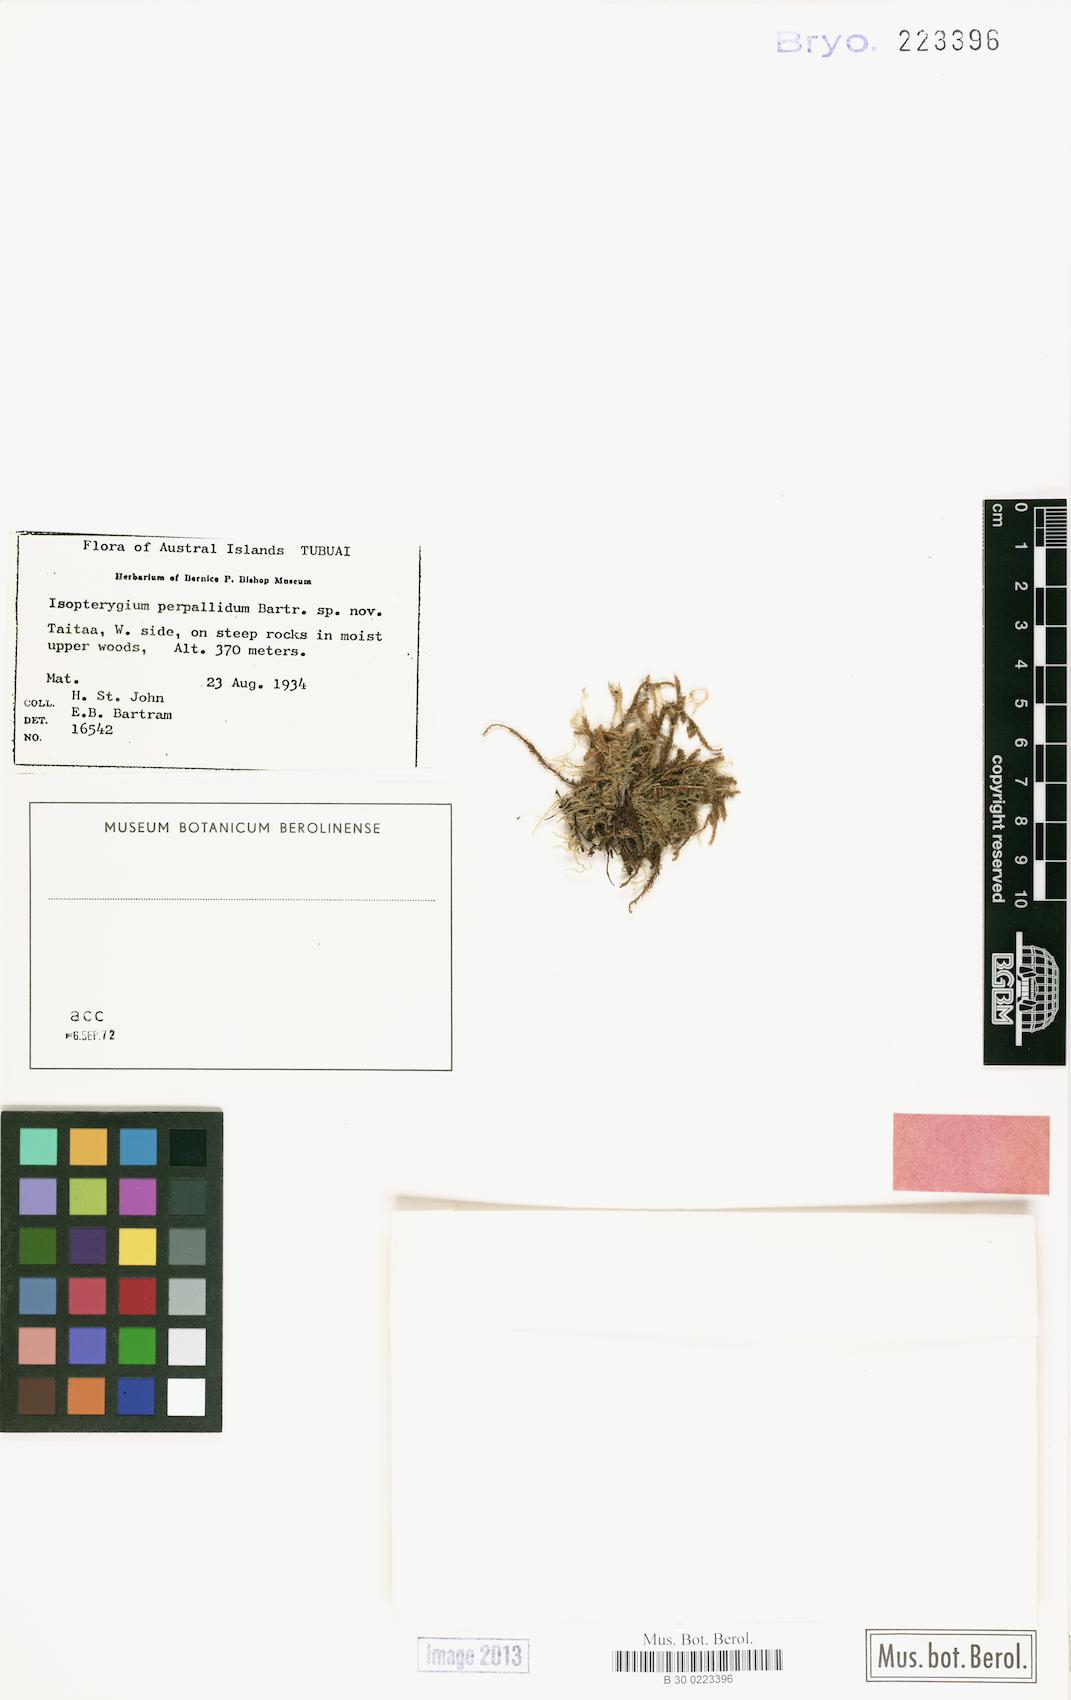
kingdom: Plantae
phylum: Bryophyta
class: Bryopsida
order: Hypnales
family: Pylaisiadelphaceae
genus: Isopterygium
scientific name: Isopterygium perpallidum
